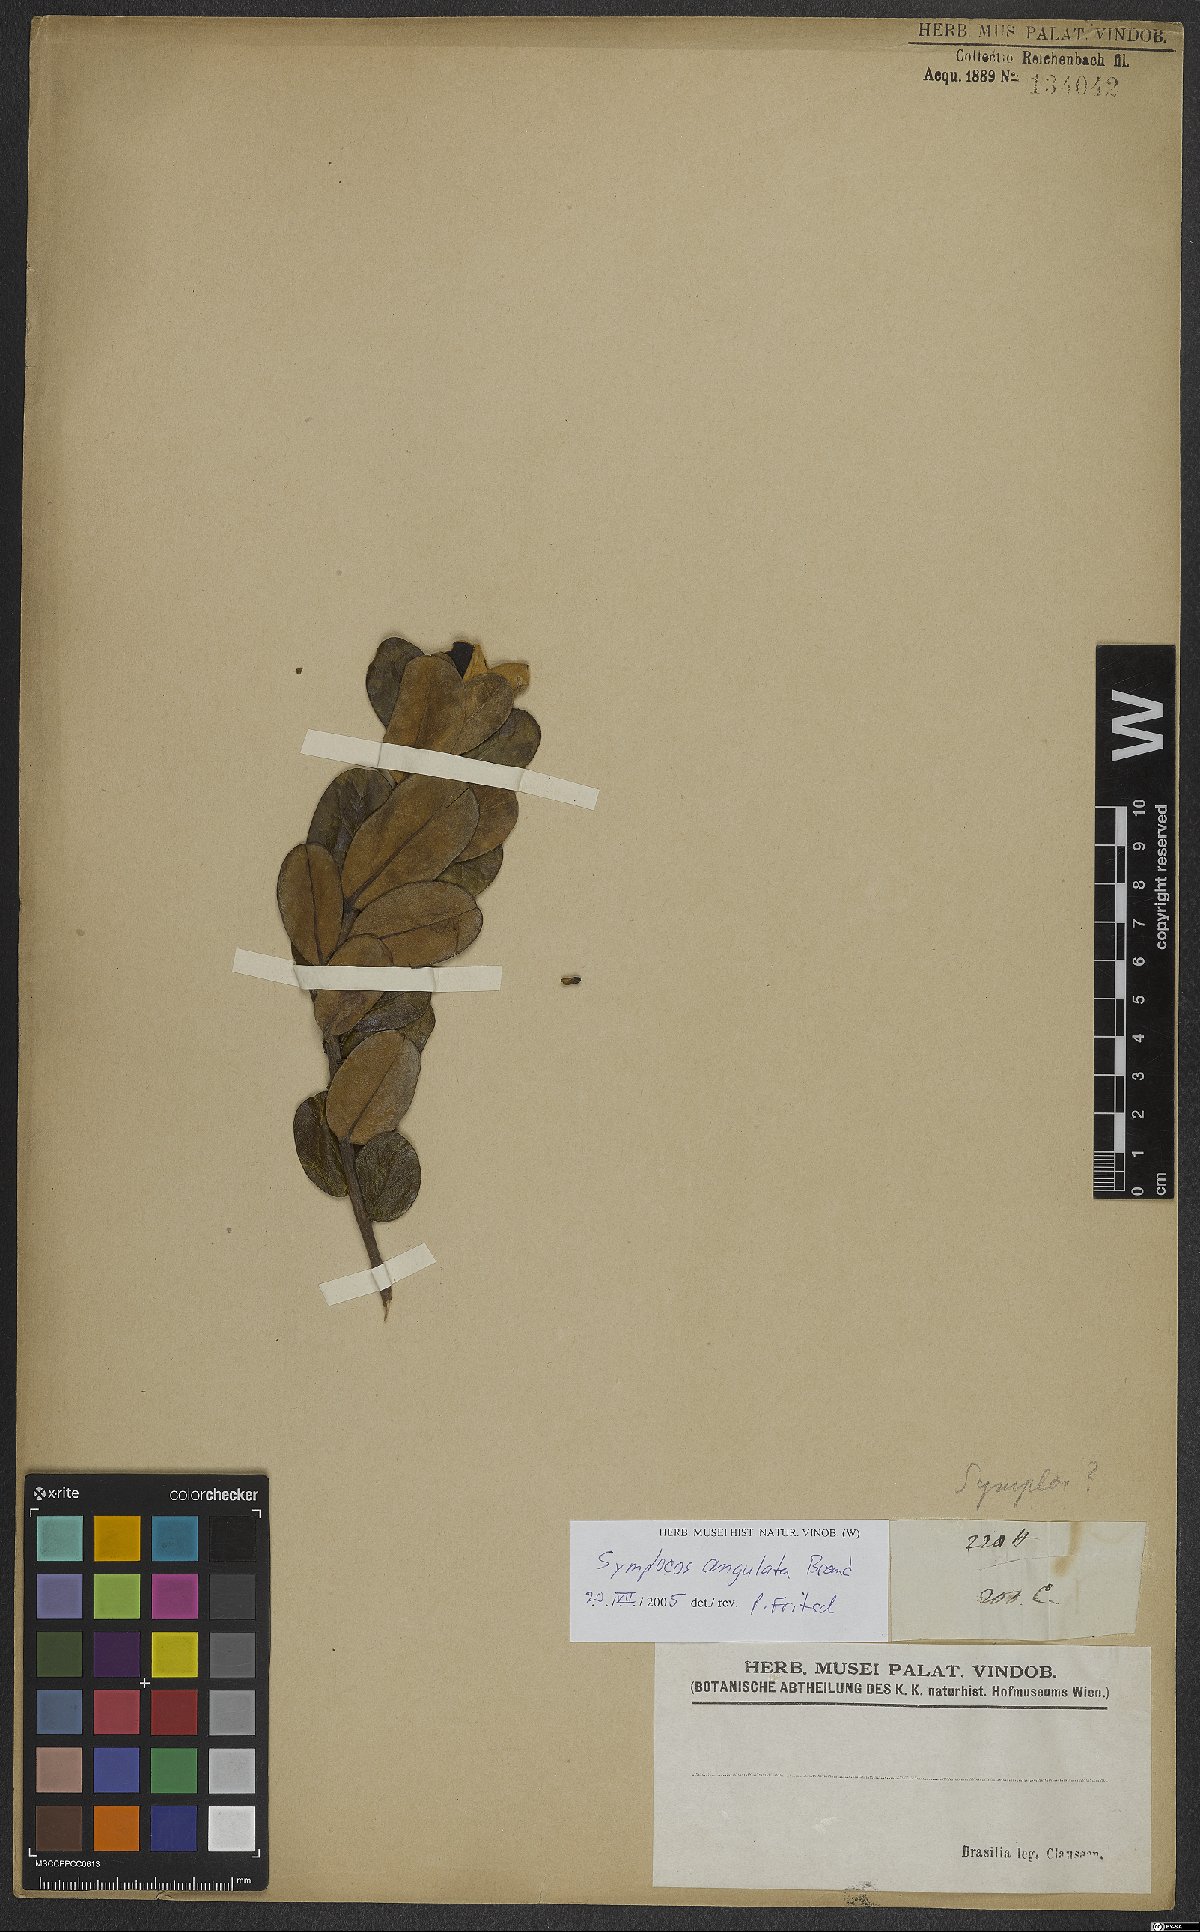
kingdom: Plantae
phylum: Tracheophyta
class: Magnoliopsida
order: Ericales
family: Symplocaceae
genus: Symplocos
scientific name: Symplocos angulata
